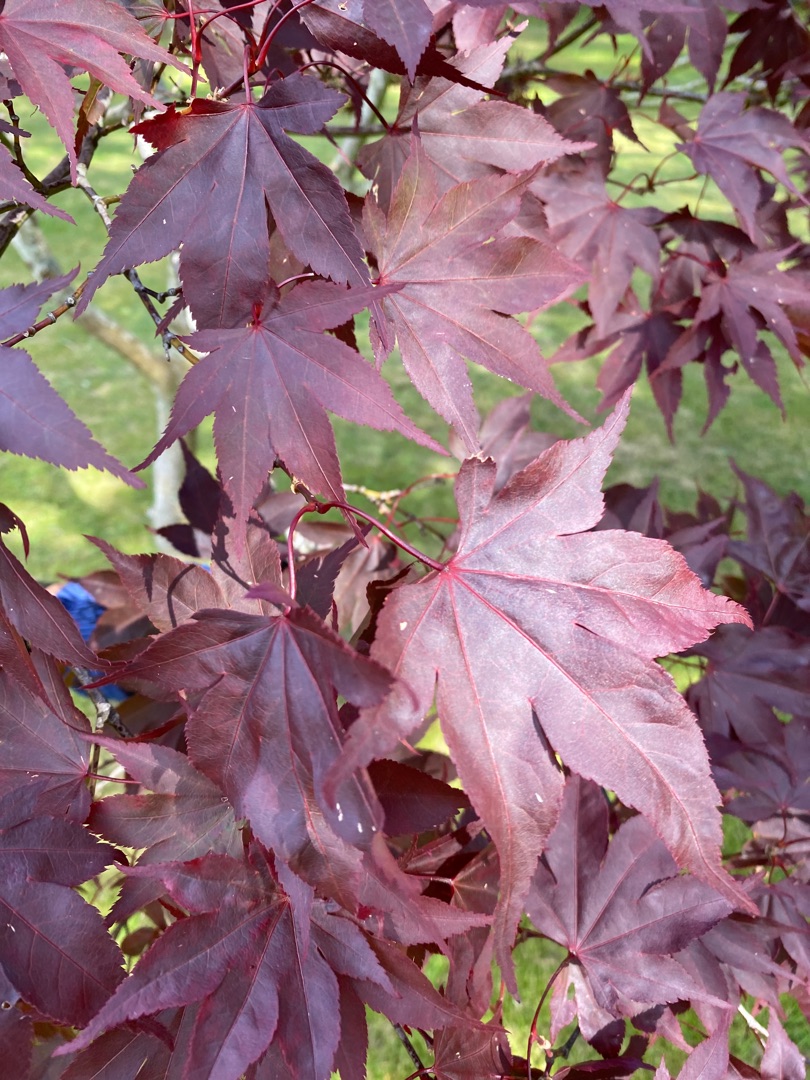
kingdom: Plantae
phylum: Tracheophyta
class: Magnoliopsida
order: Sapindales
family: Sapindaceae
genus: Acer
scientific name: Acer palmatum
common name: Japansk løn
